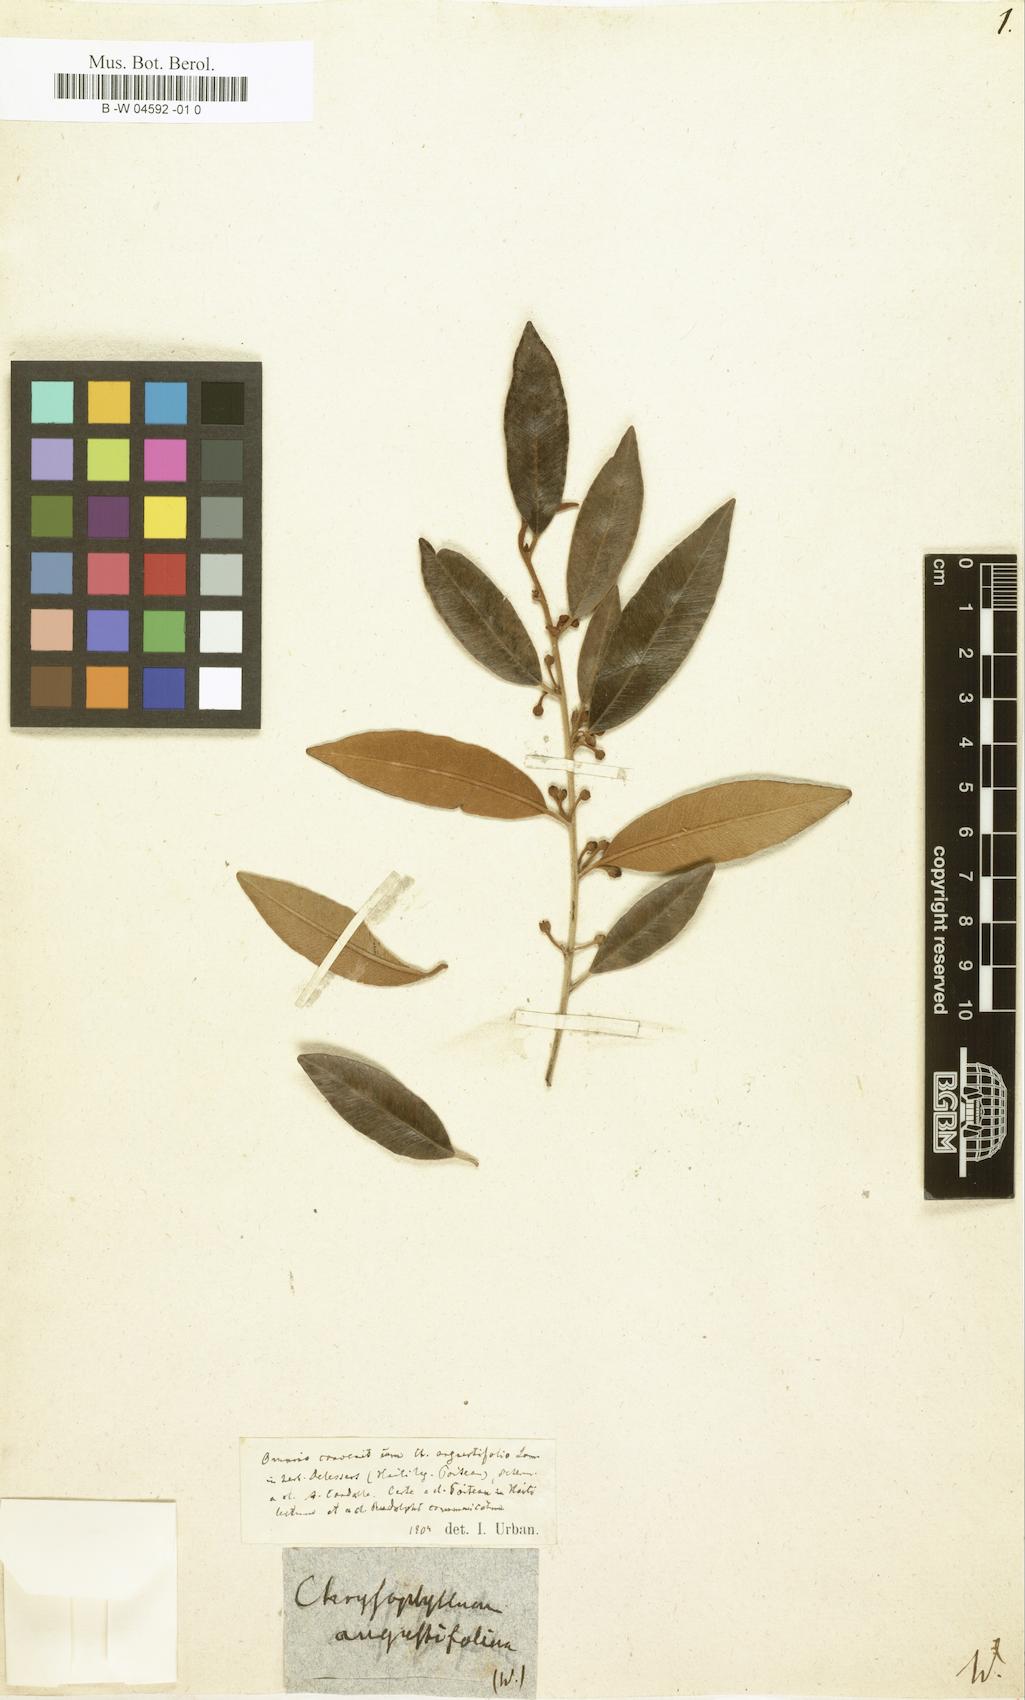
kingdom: Plantae
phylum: Tracheophyta
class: Magnoliopsida
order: Ericales
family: Sapotaceae
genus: Chrysophyllum
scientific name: Chrysophyllum oliviforme
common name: Satinleaf
